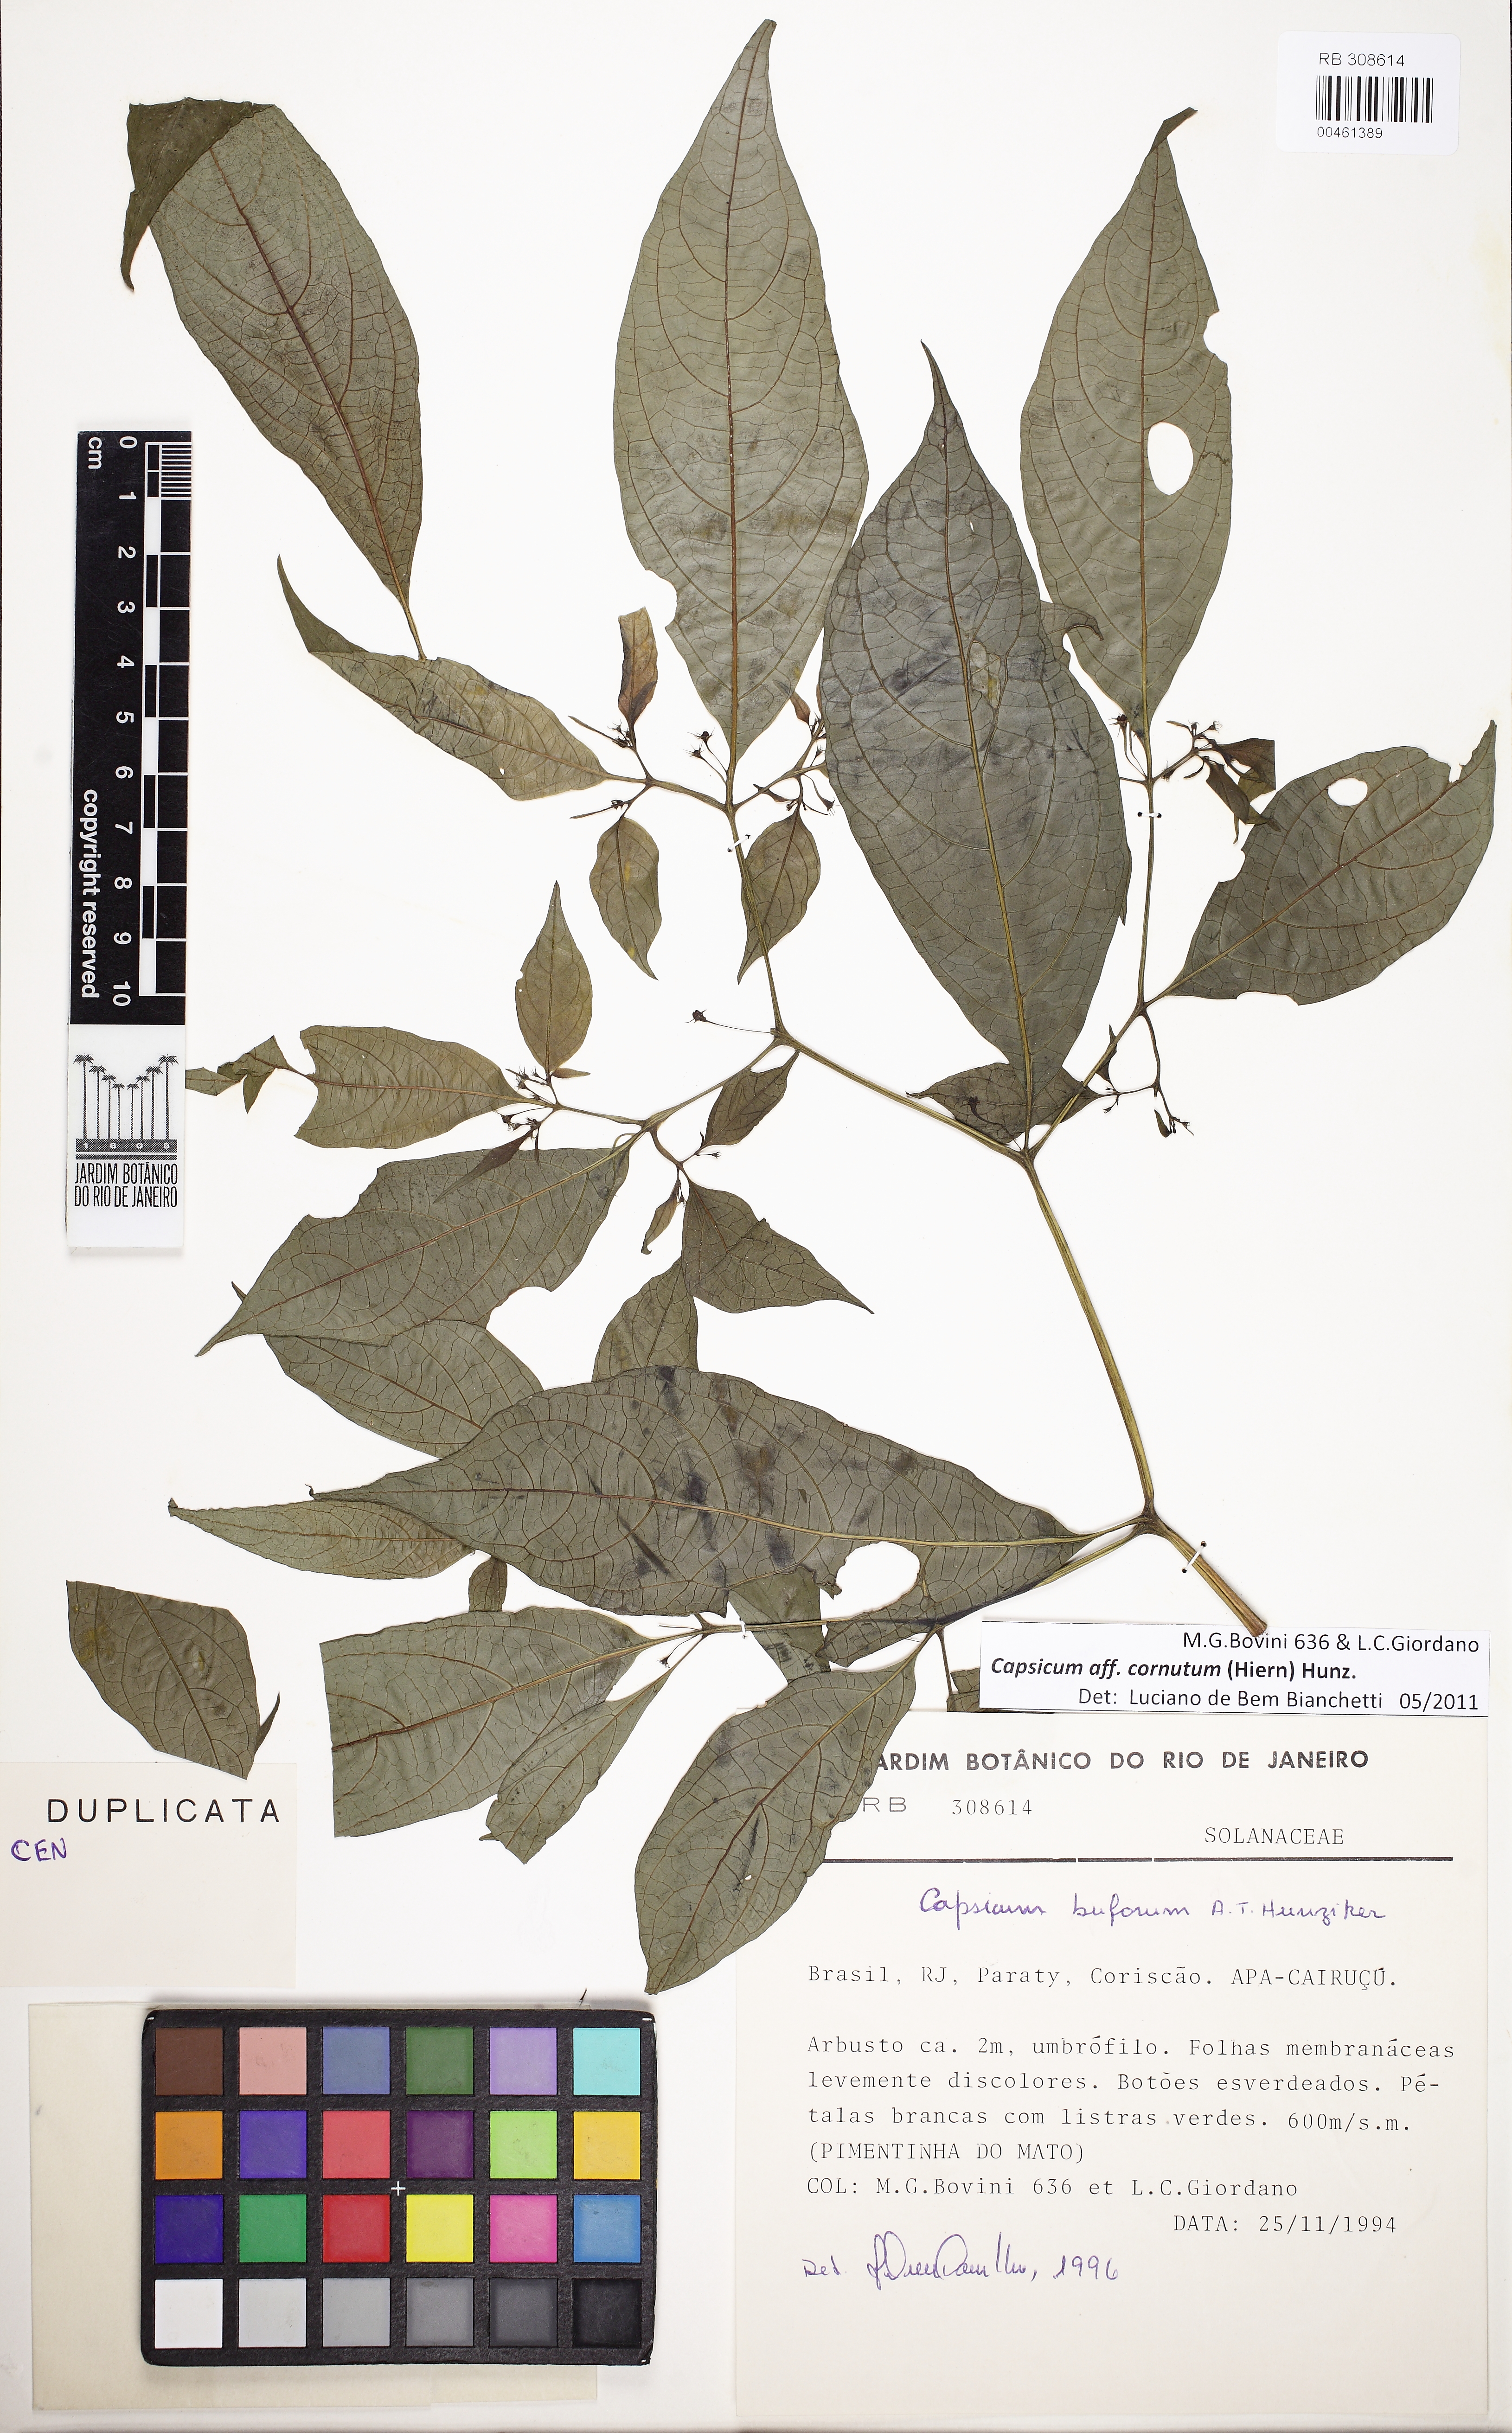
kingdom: Plantae
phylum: Tracheophyta
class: Magnoliopsida
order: Solanales
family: Solanaceae
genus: Capsicum
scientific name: Capsicum cornutum
